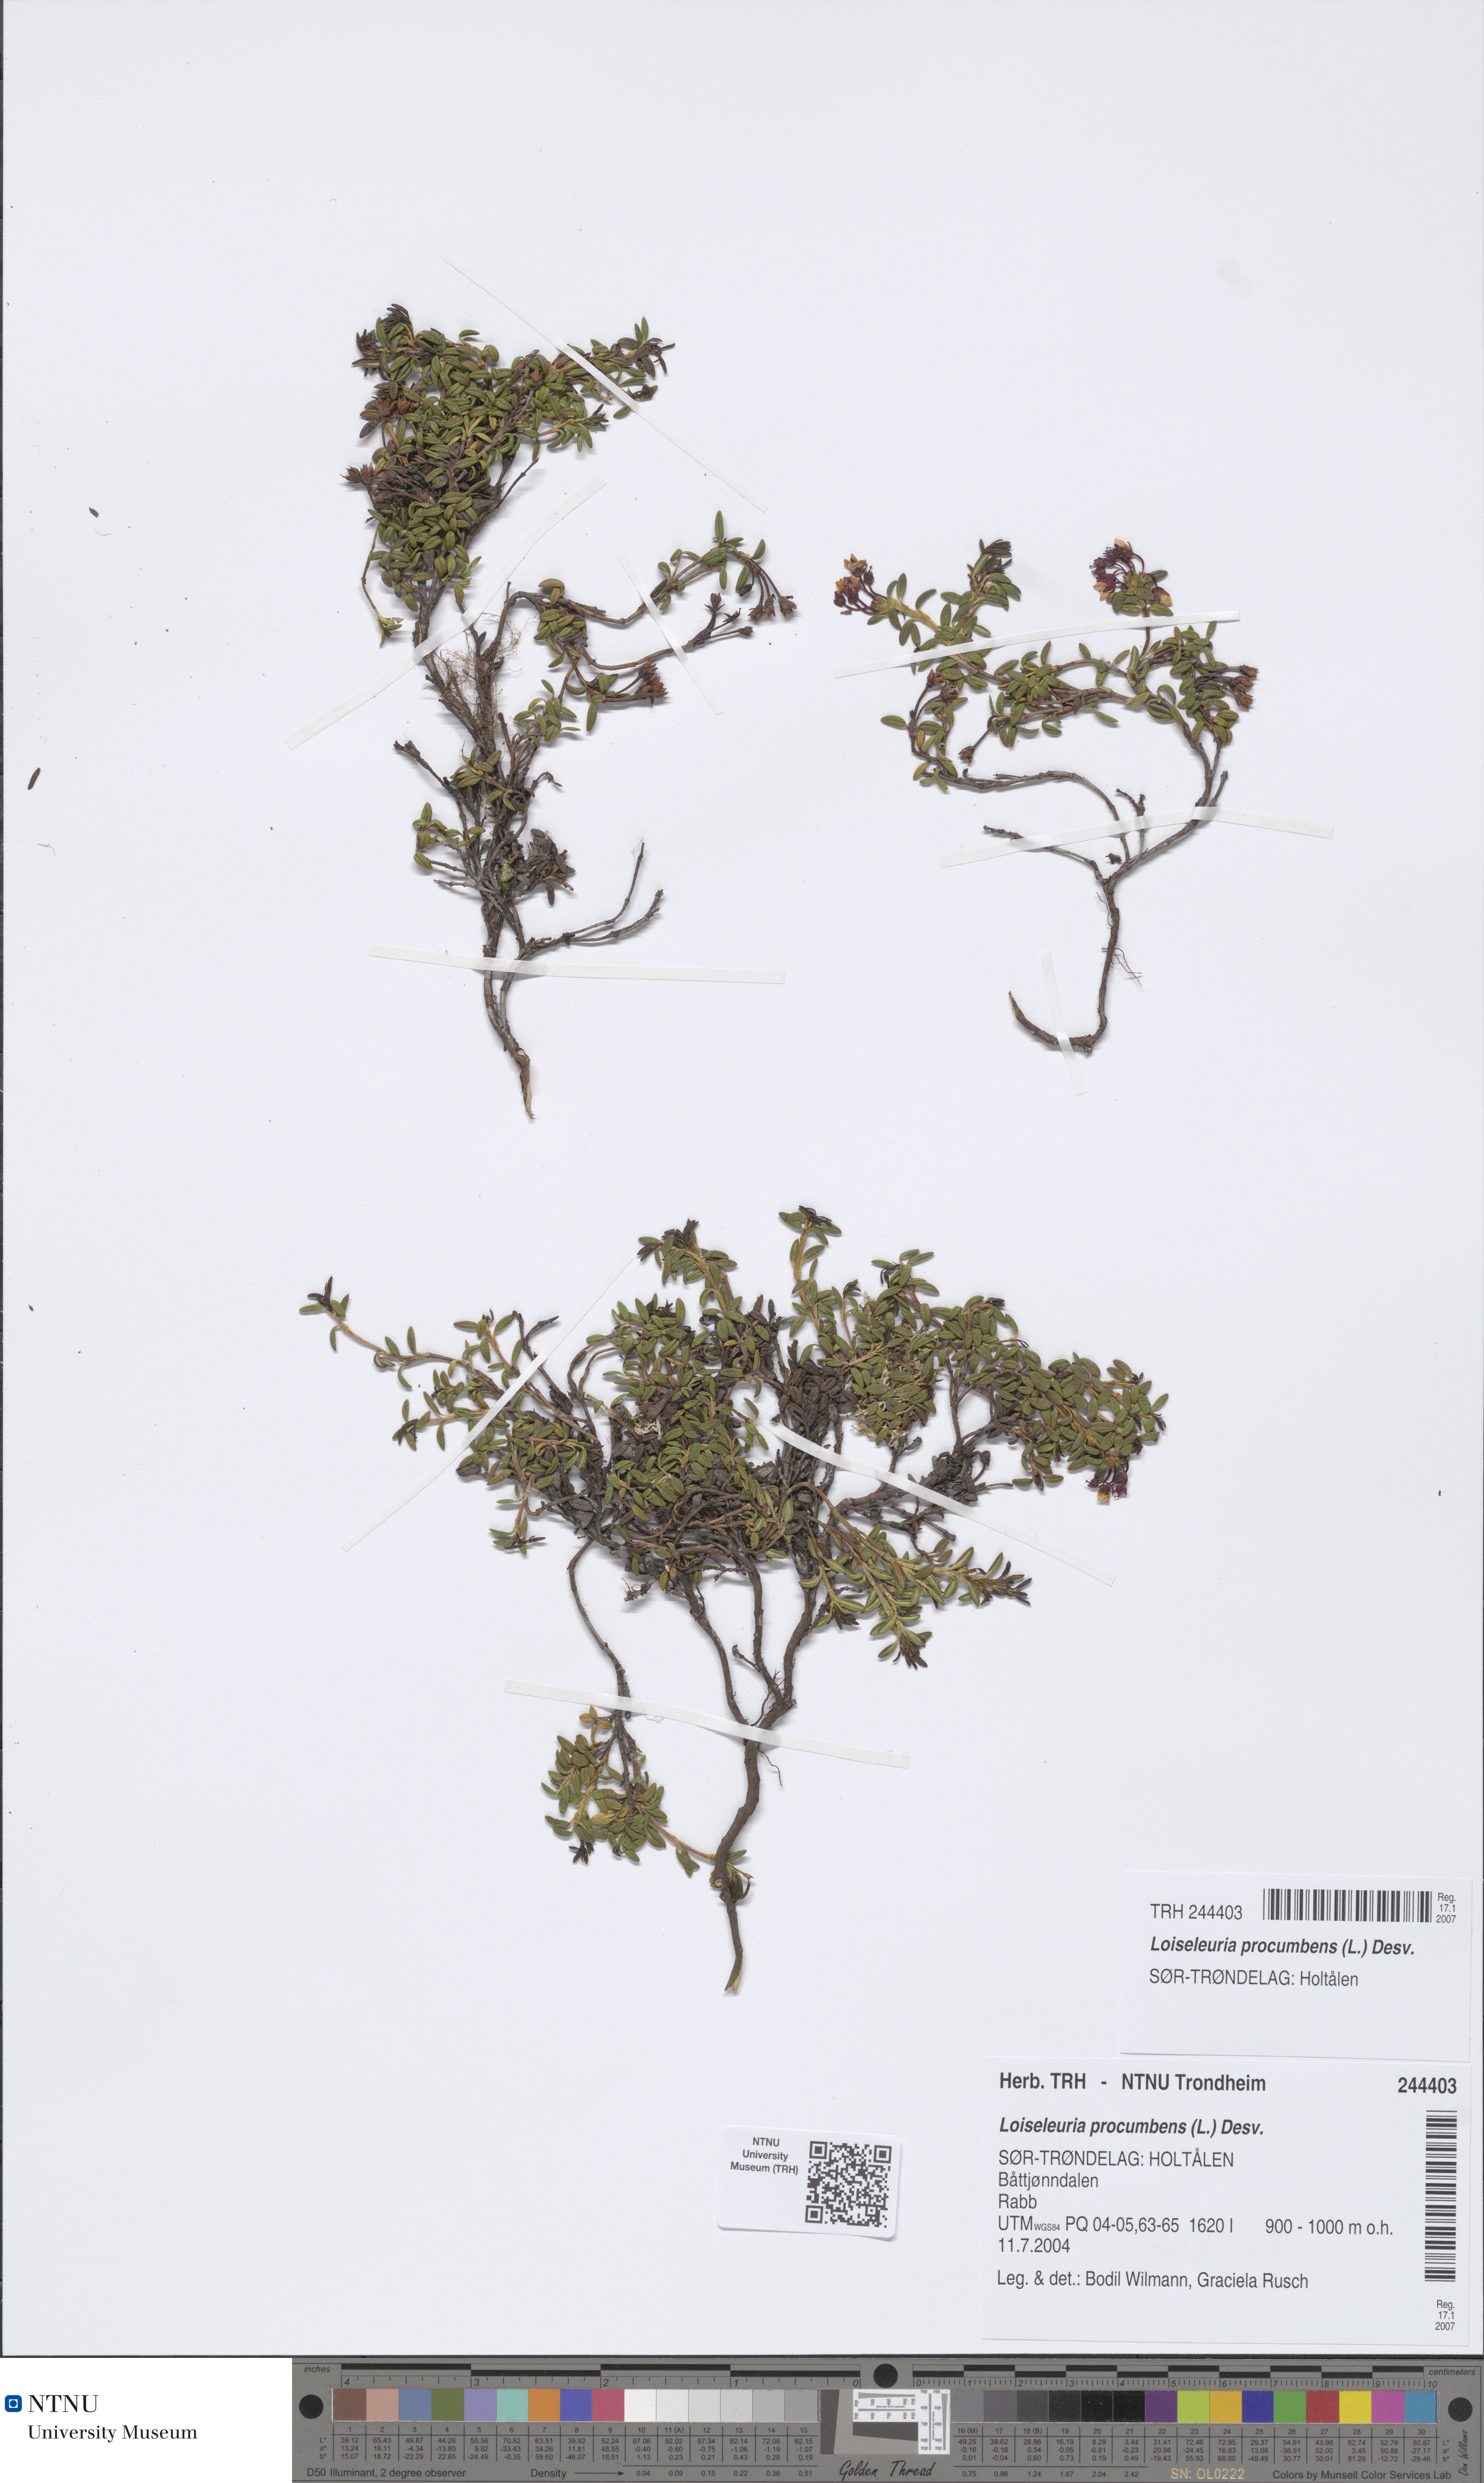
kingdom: Plantae
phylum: Tracheophyta
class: Magnoliopsida
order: Ericales
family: Ericaceae
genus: Kalmia
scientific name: Kalmia procumbens
